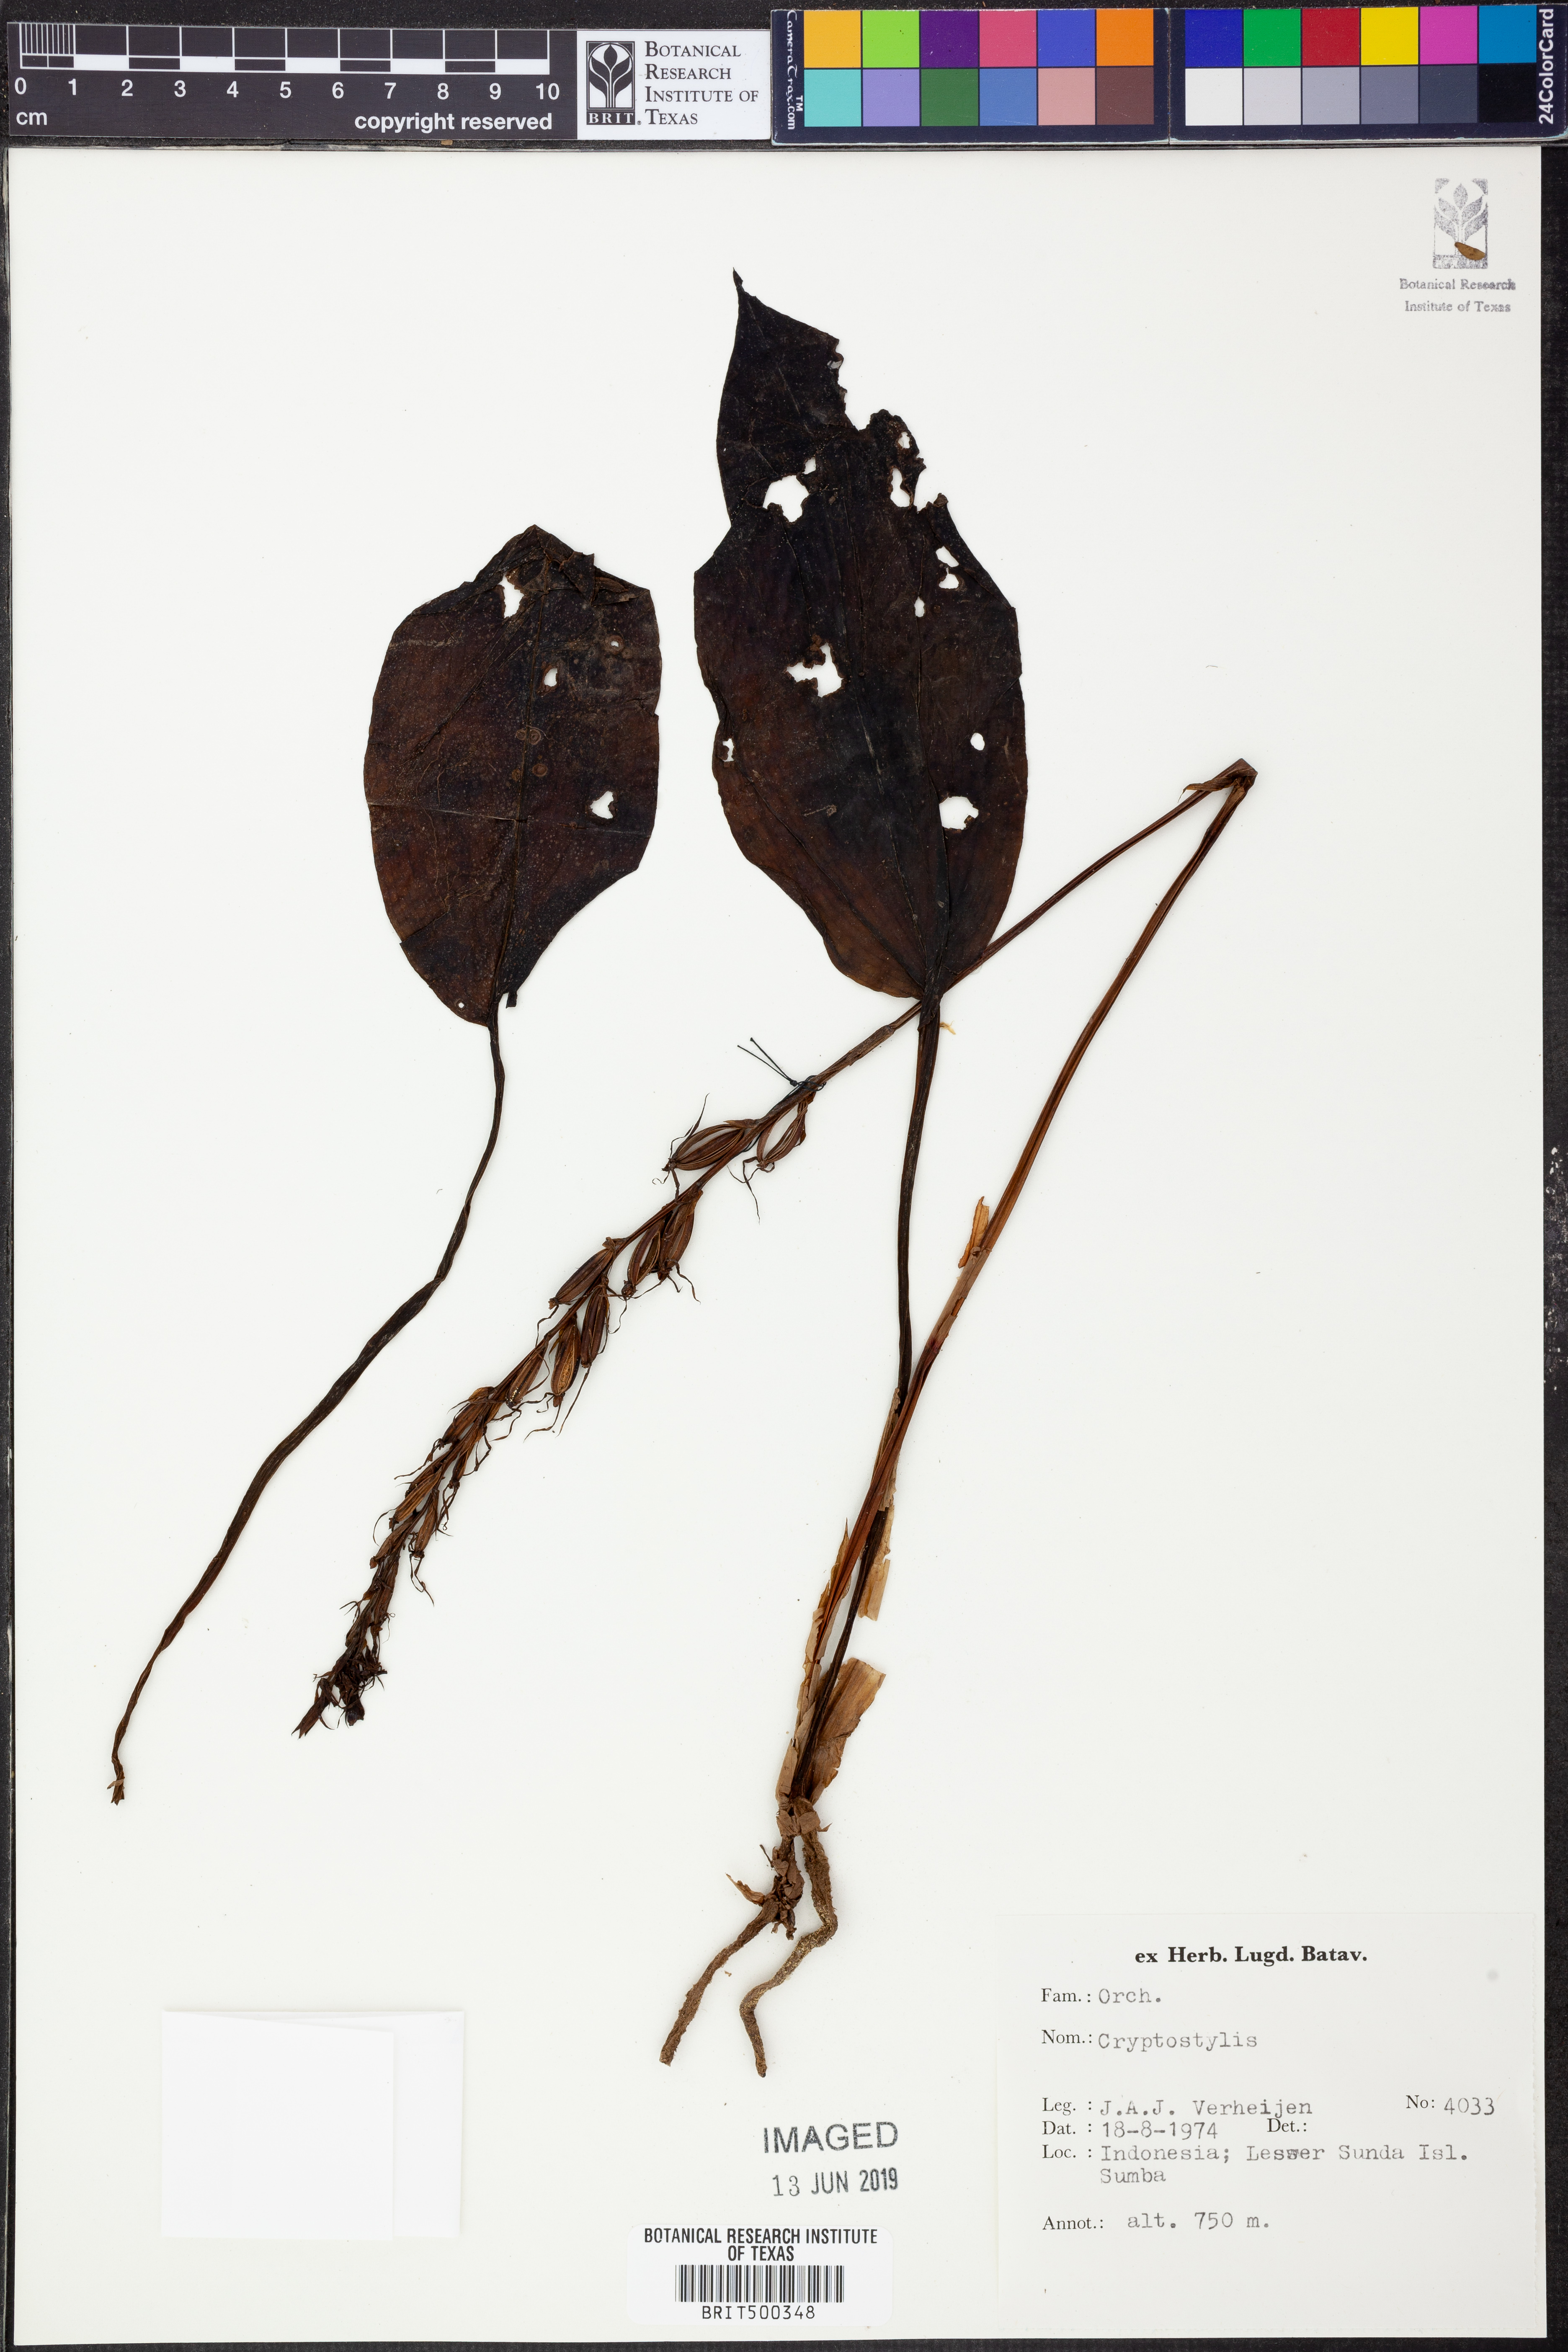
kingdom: Plantae
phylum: Tracheophyta
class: Liliopsida
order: Asparagales
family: Orchidaceae
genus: Cryptostylis
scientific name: Cryptostylis
